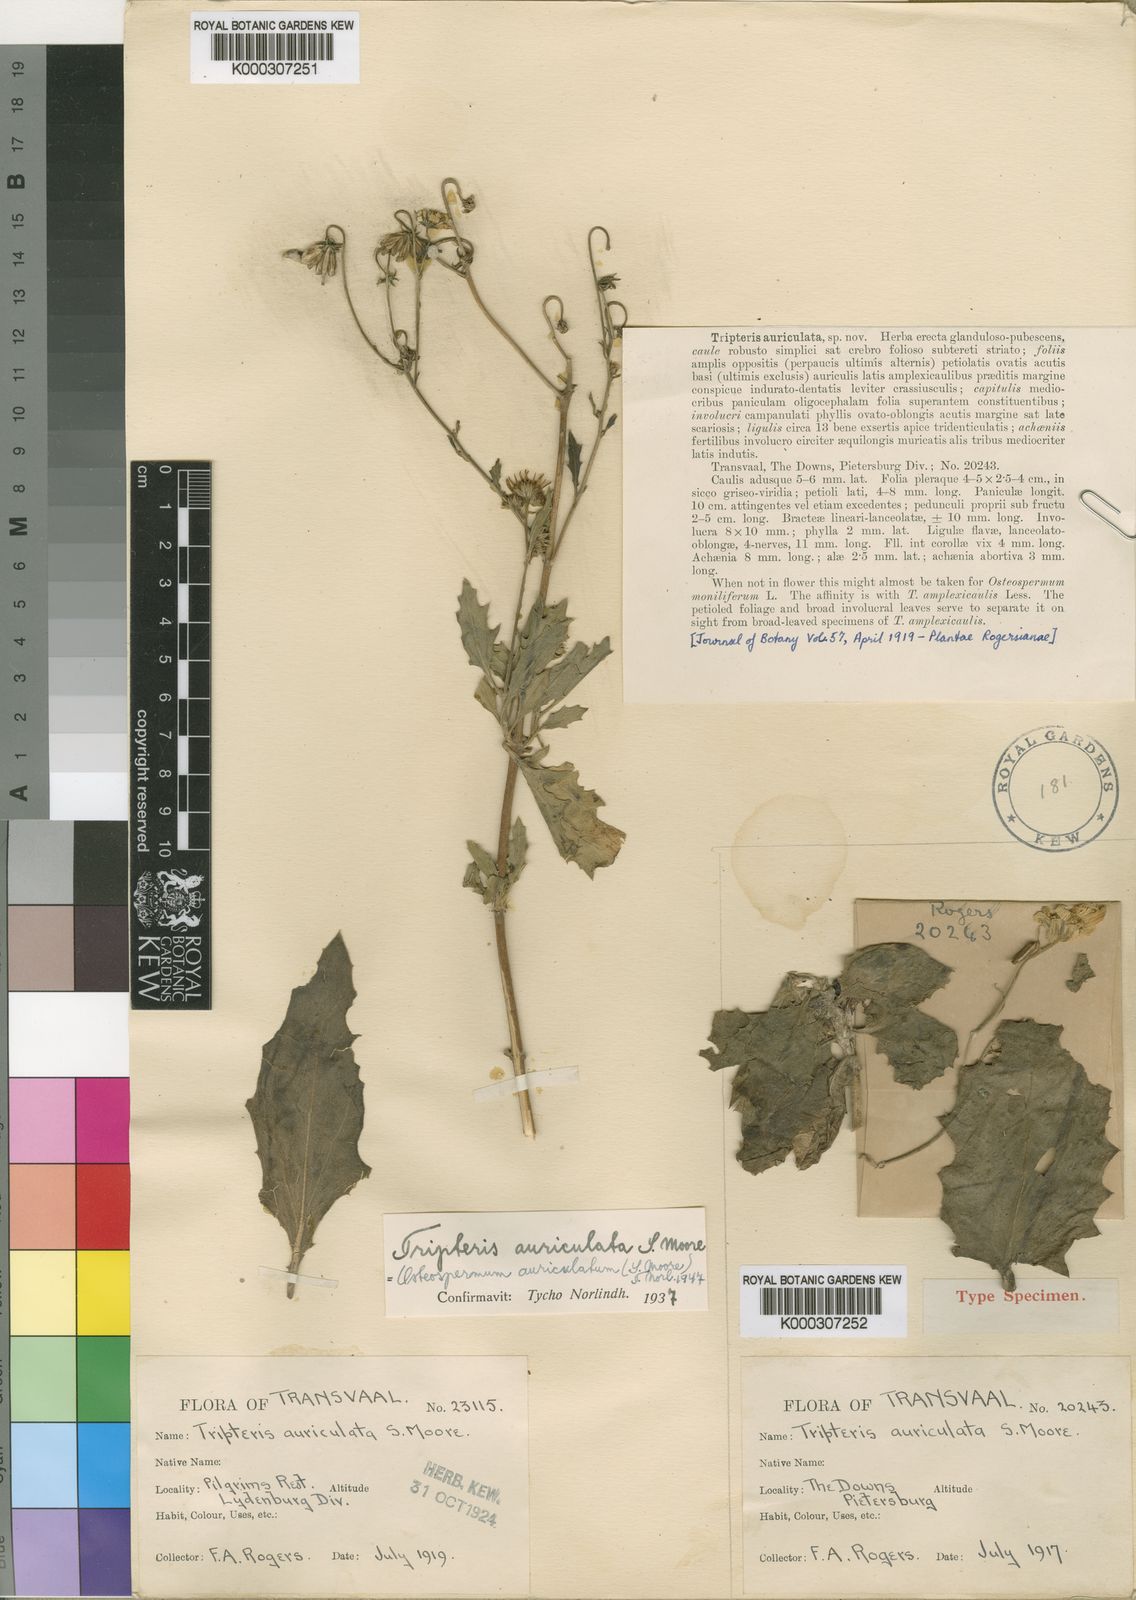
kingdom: Plantae
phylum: Tracheophyta
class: Magnoliopsida
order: Asterales
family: Asteraceae
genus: Osteospermum
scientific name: Osteospermum auriculatum
